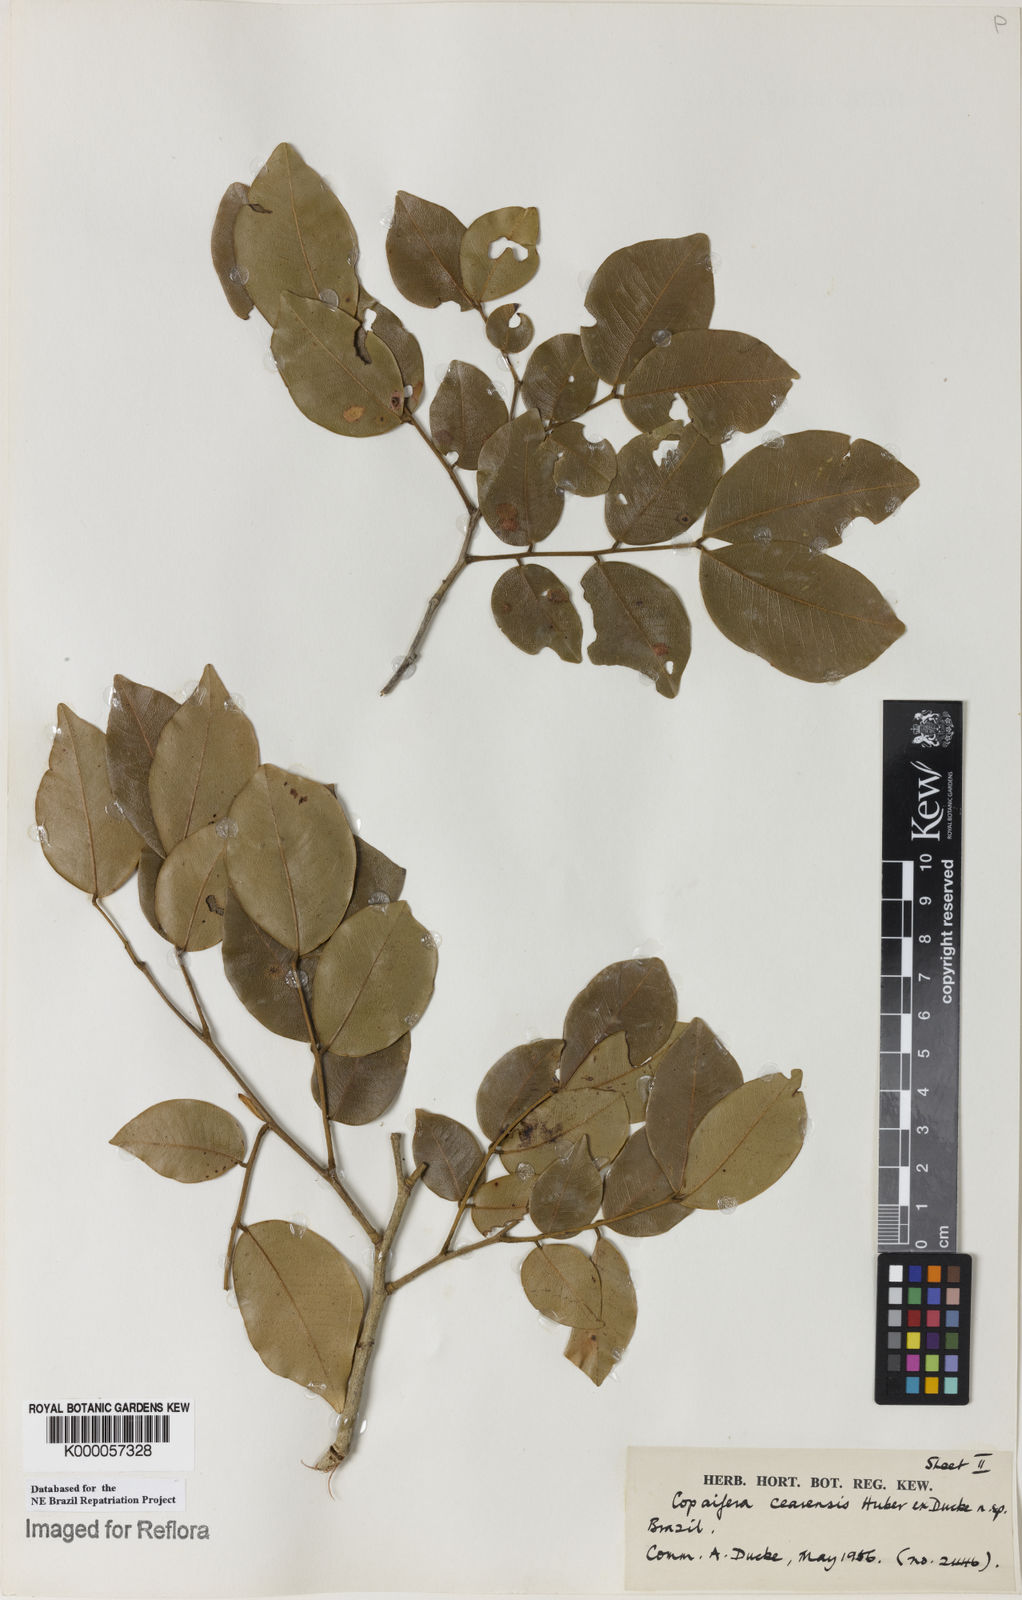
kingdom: Plantae
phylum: Tracheophyta
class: Magnoliopsida
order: Fabales
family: Fabaceae
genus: Copaifera
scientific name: Copaifera duckei
